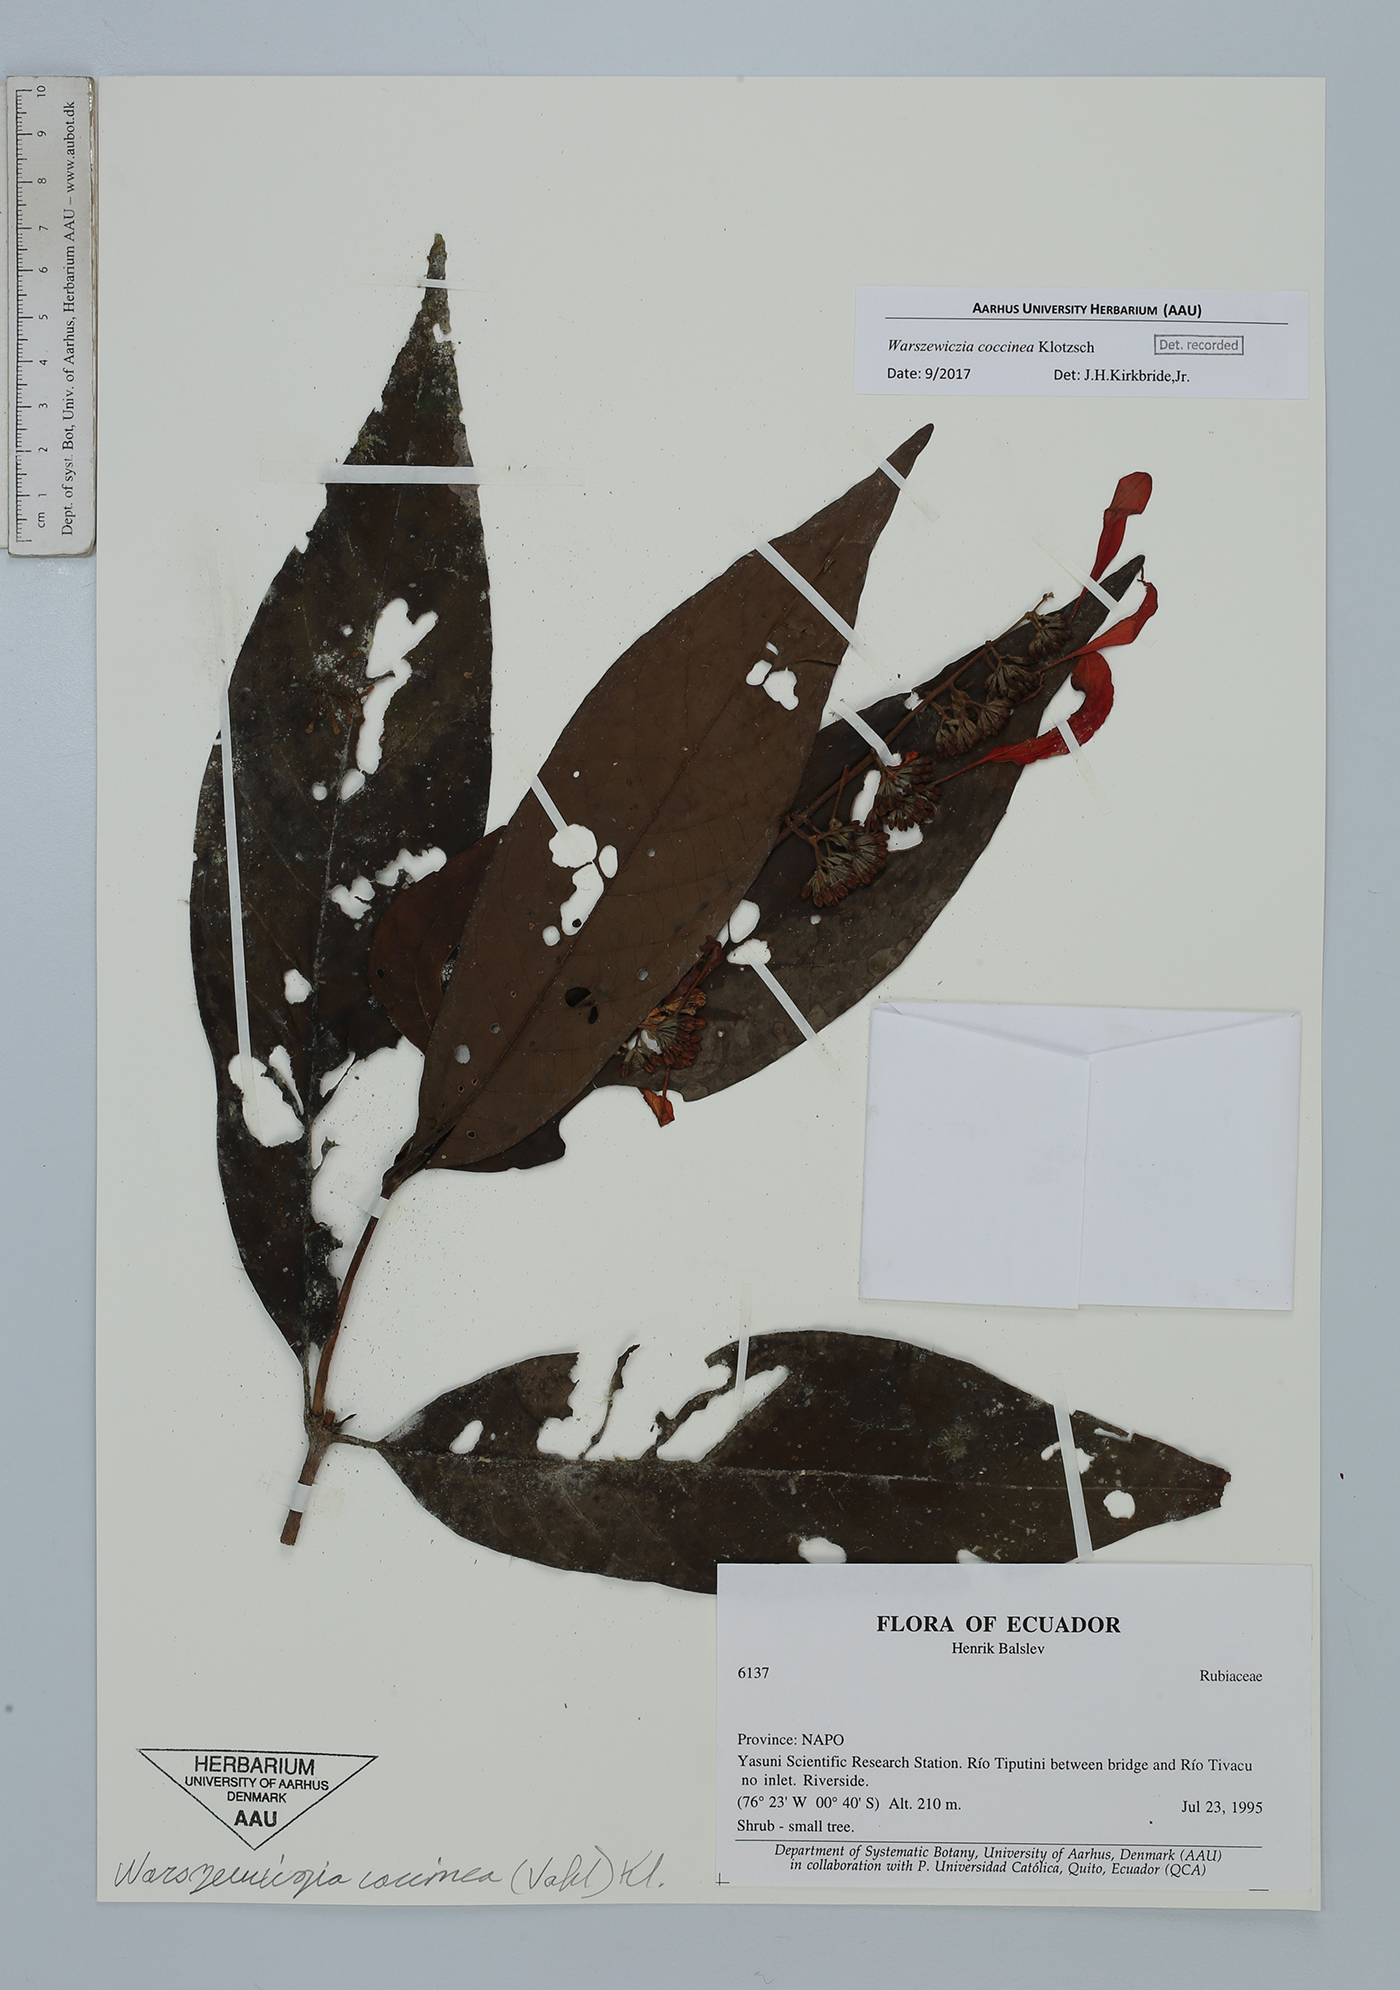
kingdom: Plantae
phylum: Tracheophyta
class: Magnoliopsida
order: Gentianales
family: Rubiaceae
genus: Warszewiczia
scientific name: Warszewiczia coccinea
